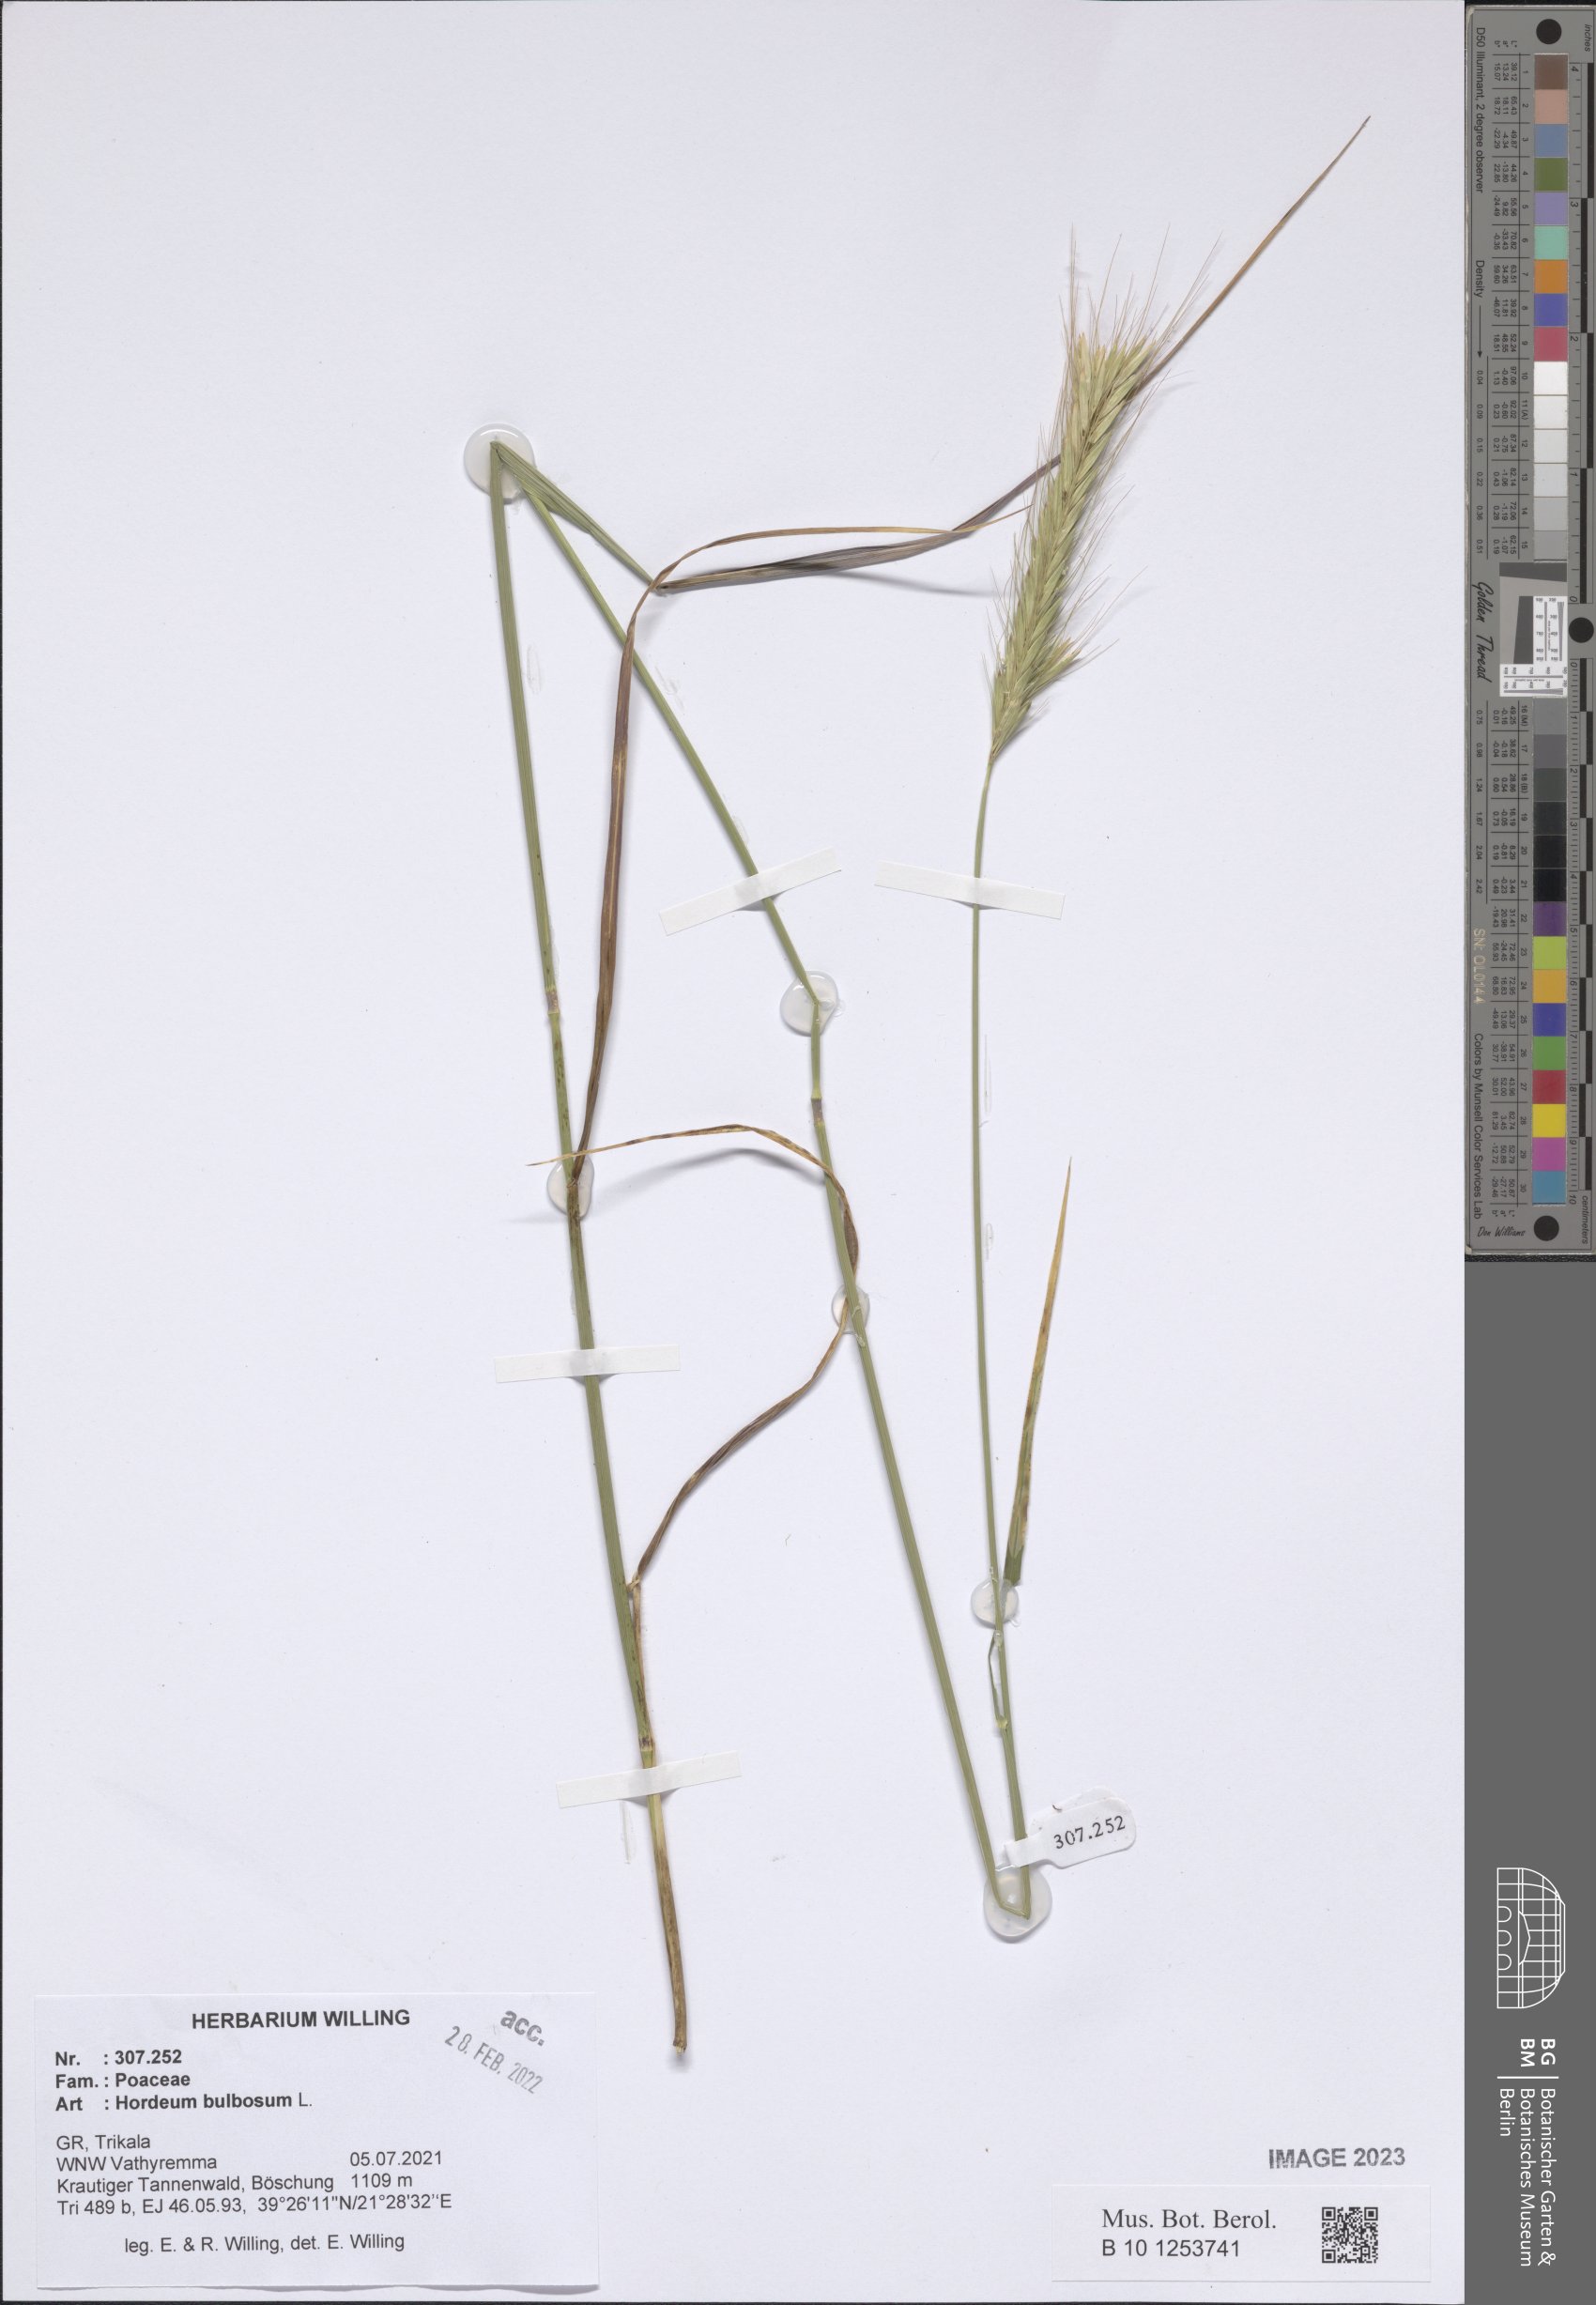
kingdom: Plantae
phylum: Tracheophyta
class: Liliopsida
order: Poales
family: Poaceae
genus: Hordeum
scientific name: Hordeum bulbosum
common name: Bulbous barley
